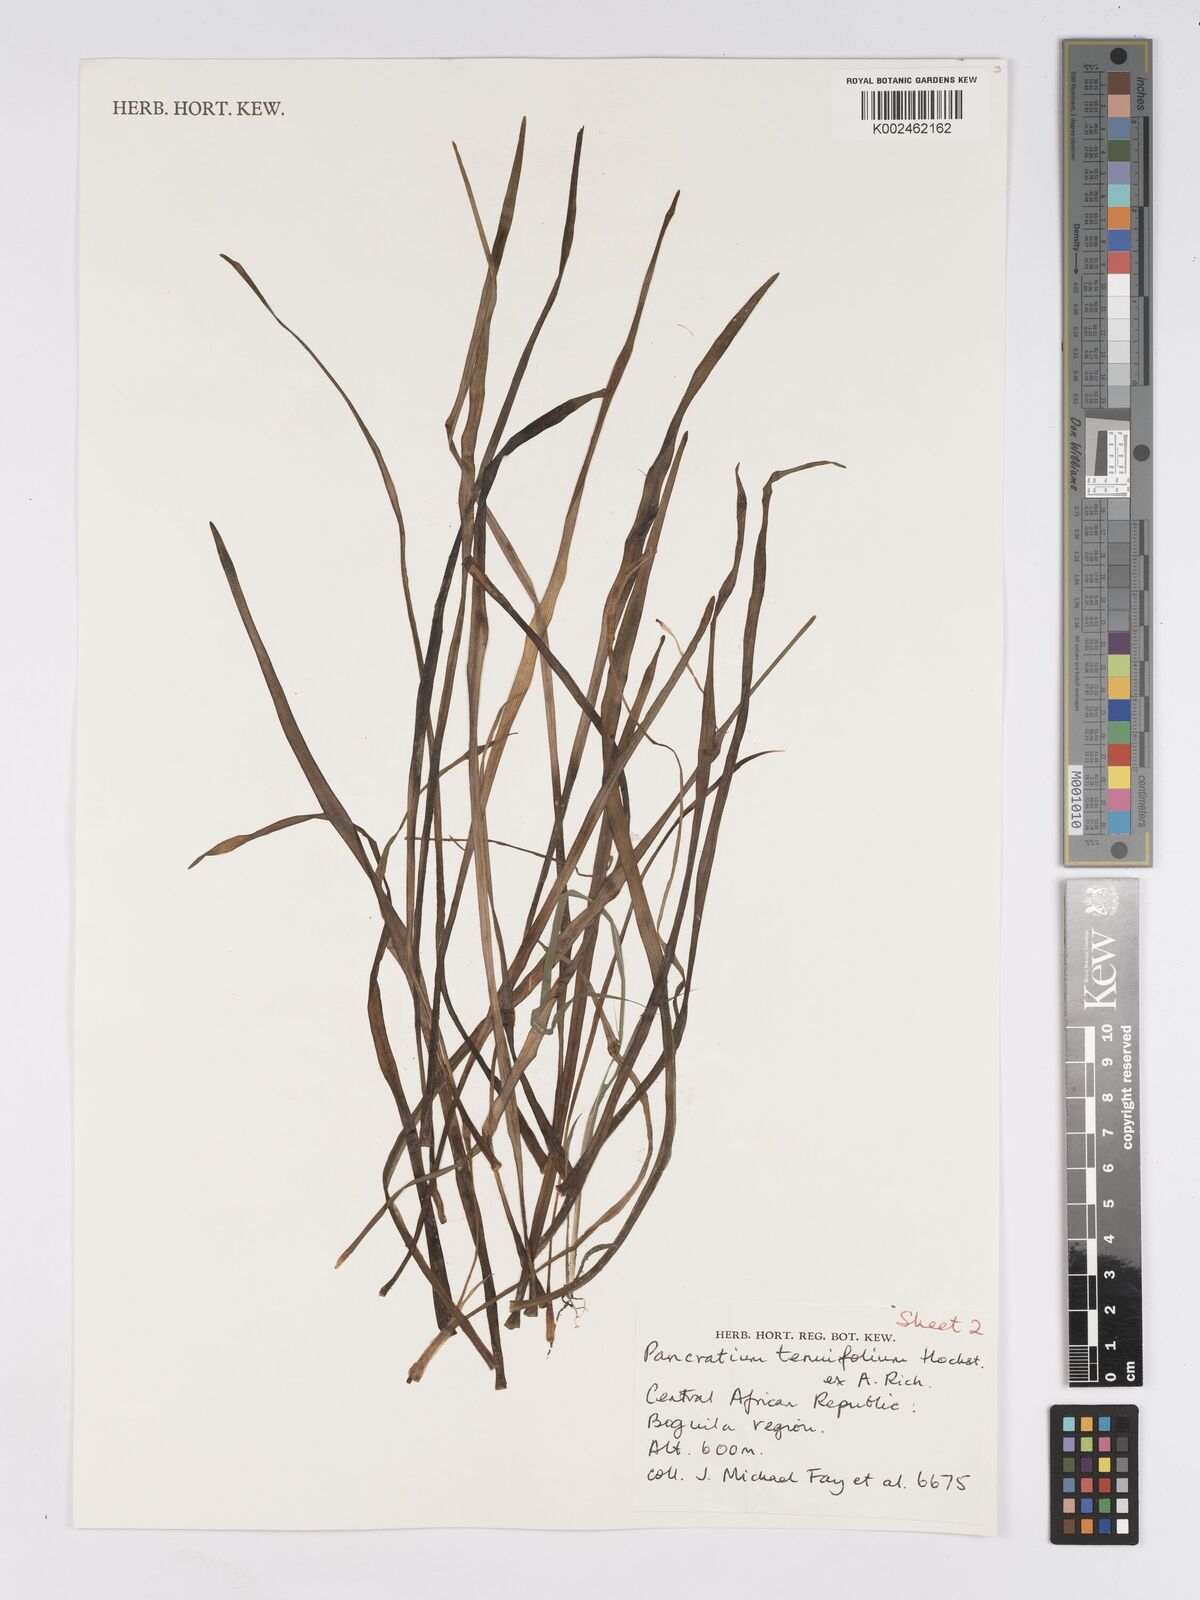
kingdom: Plantae
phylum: Tracheophyta
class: Liliopsida
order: Asparagales
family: Amaryllidaceae
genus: Pancratium
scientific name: Pancratium tenuifolium
